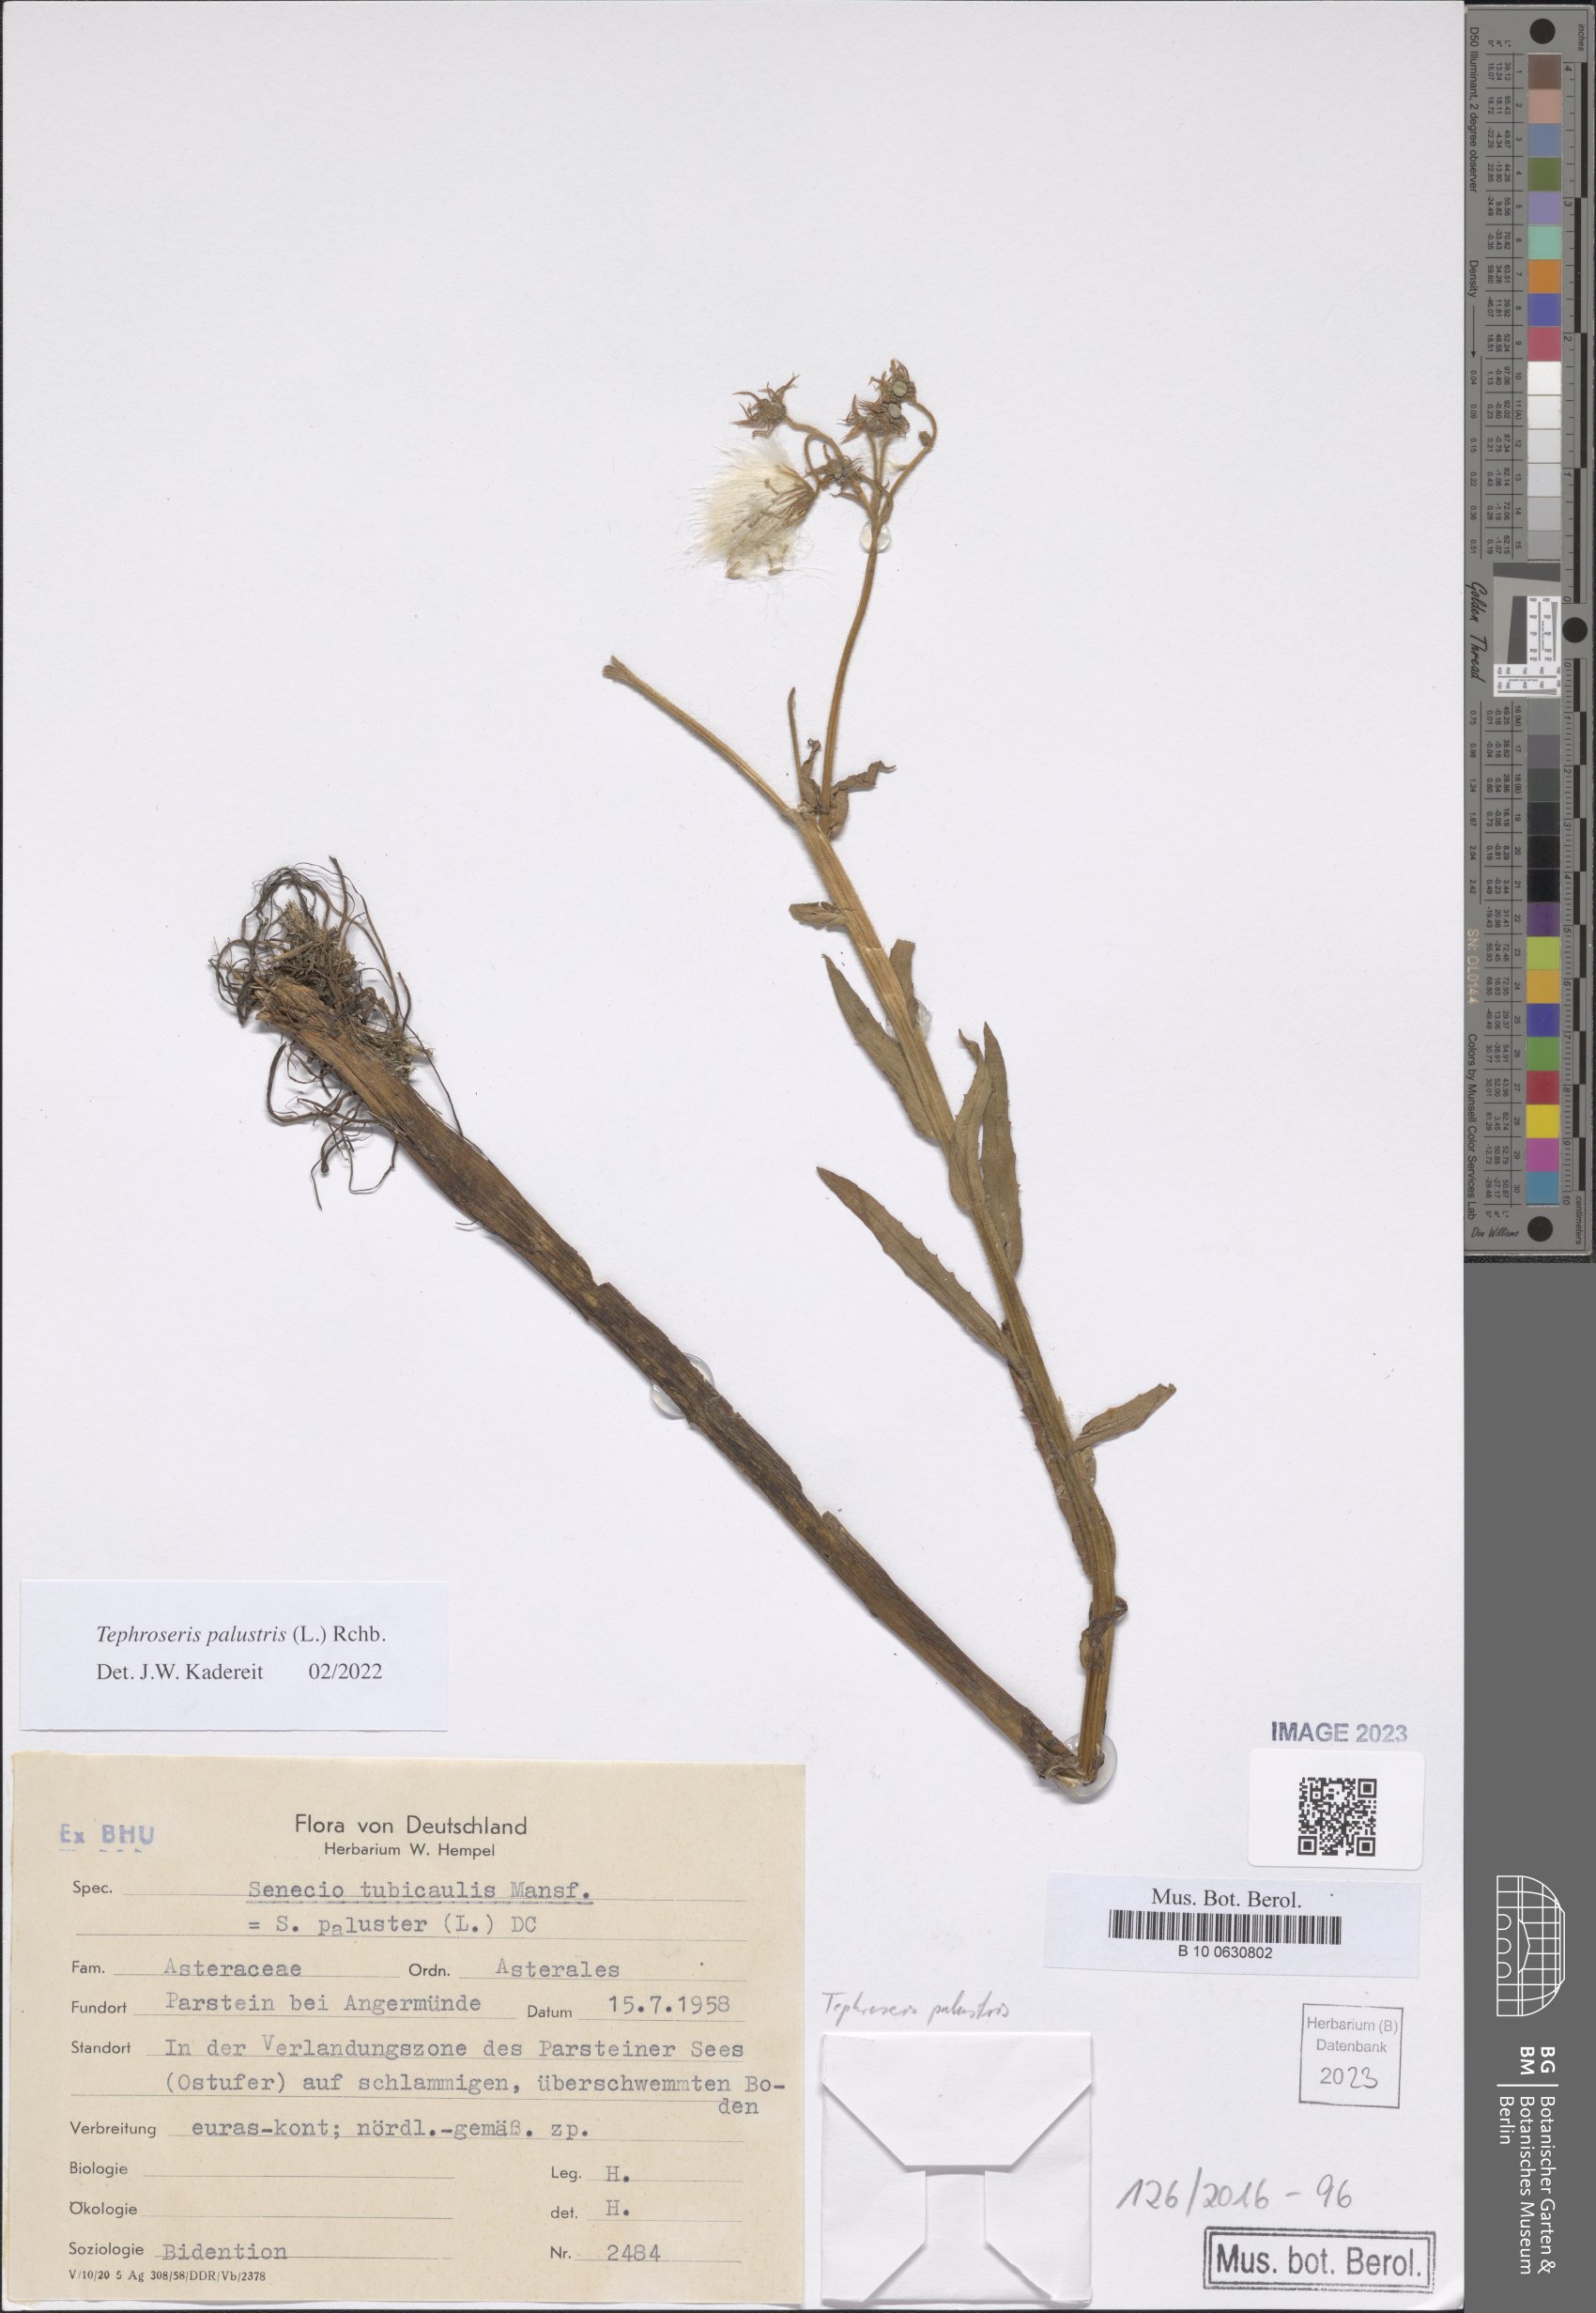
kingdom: Plantae
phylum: Tracheophyta
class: Magnoliopsida
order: Asterales
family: Asteraceae
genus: Tephroseris
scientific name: Tephroseris palustris
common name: Marsh fleawort
